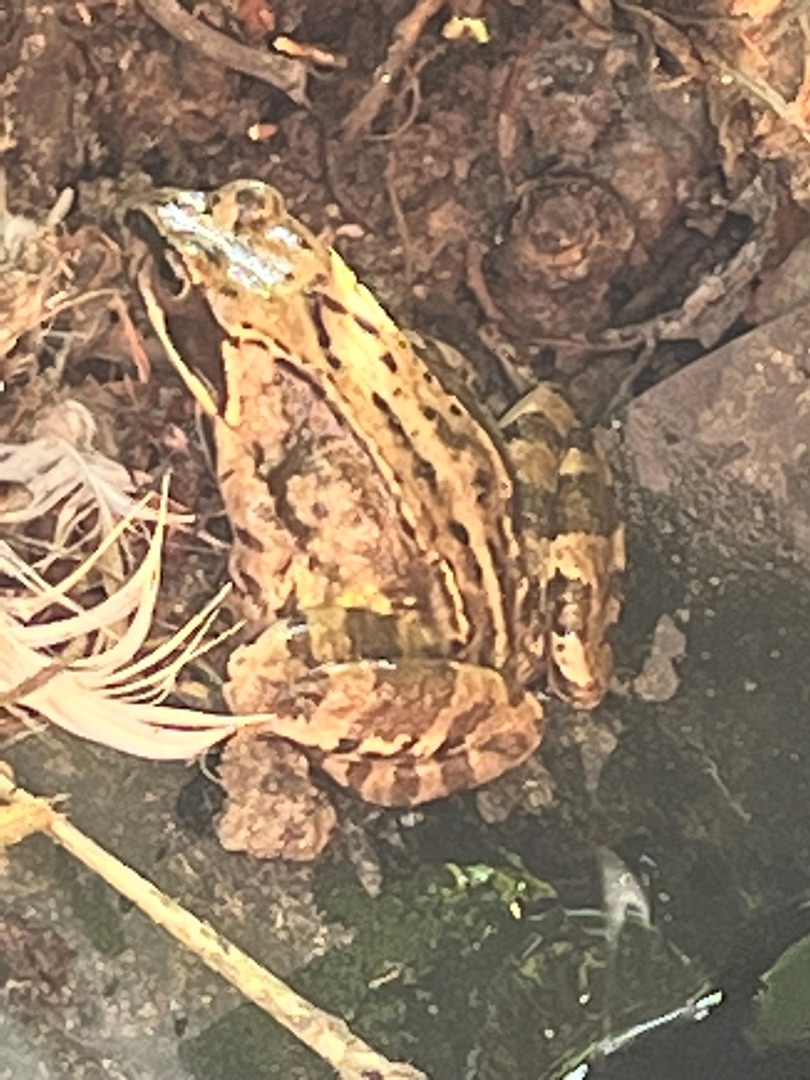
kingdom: Animalia
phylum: Chordata
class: Amphibia
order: Anura
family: Ranidae
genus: Rana
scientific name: Rana temporaria
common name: Butsnudet frø
